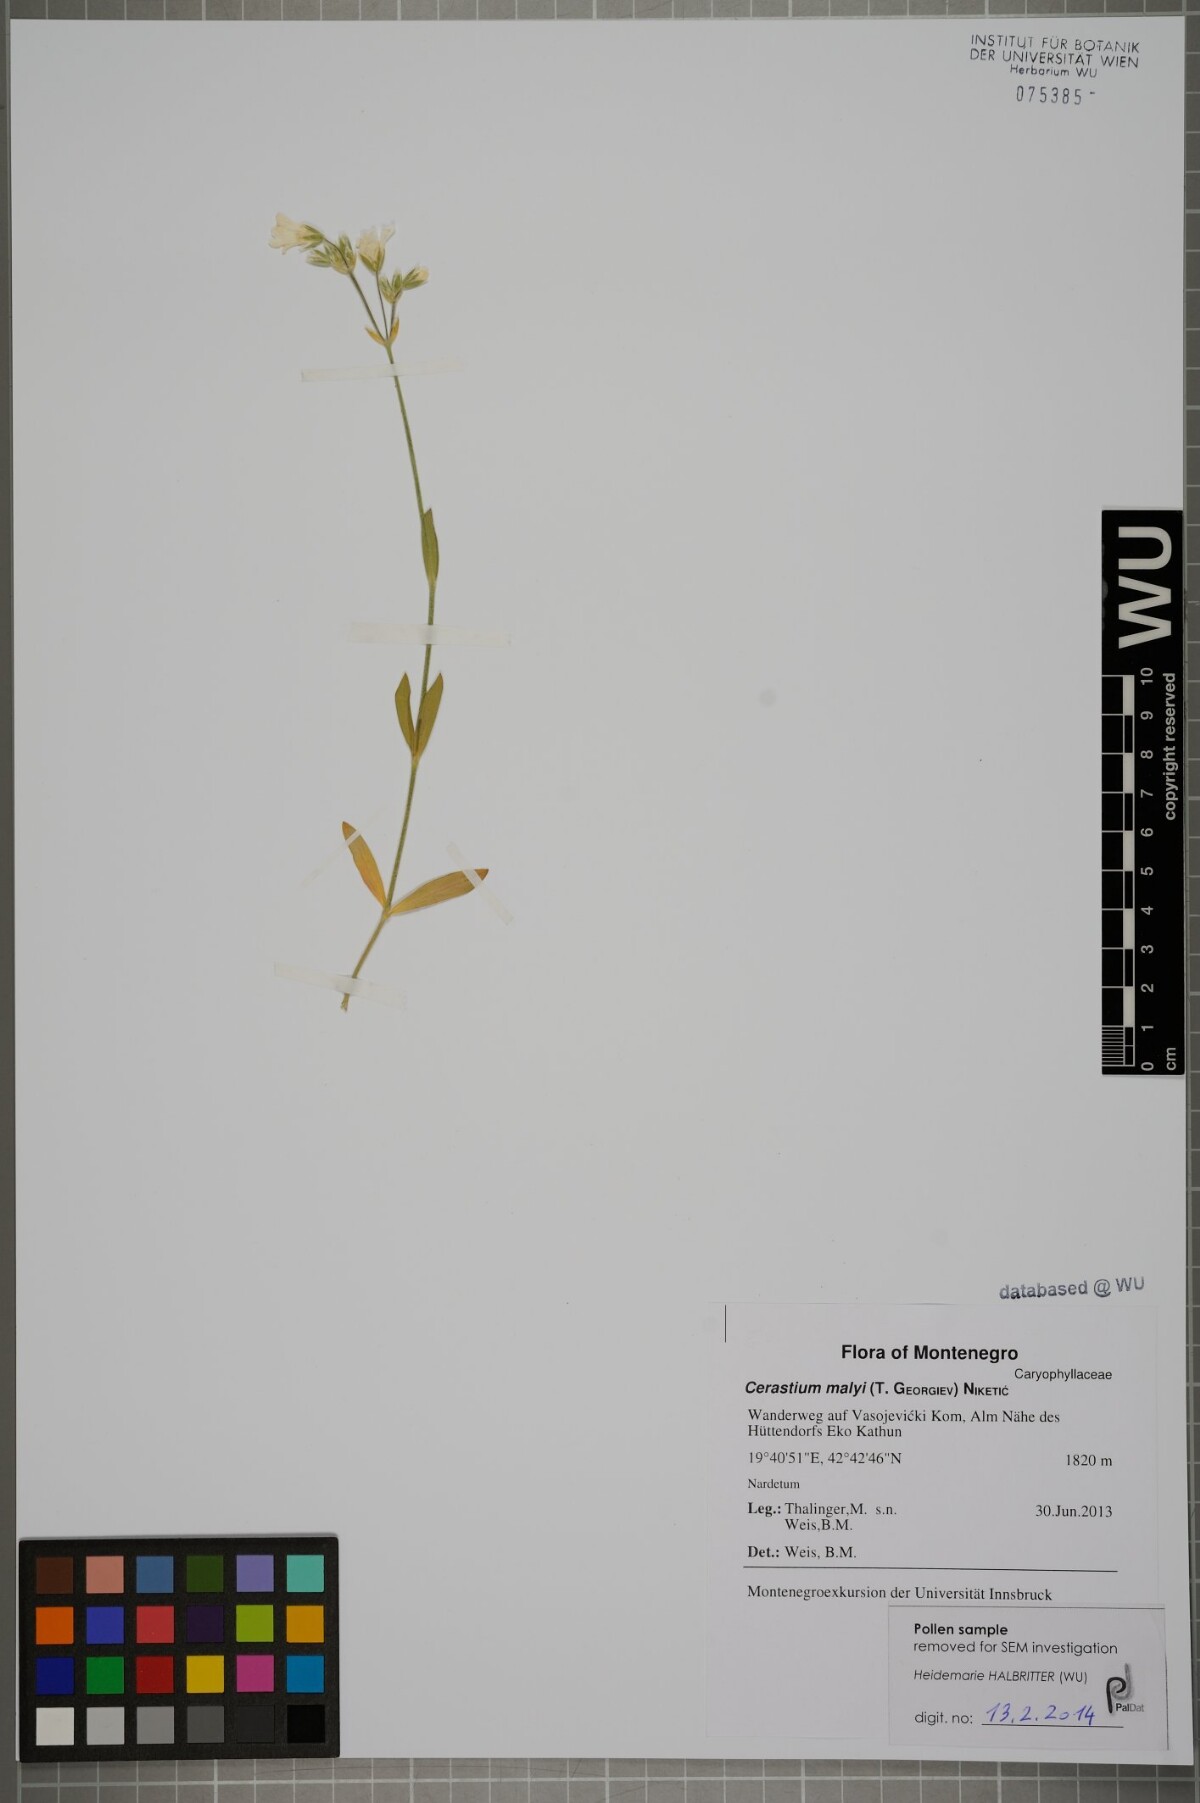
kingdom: Plantae
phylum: Tracheophyta
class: Magnoliopsida
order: Caryophyllales
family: Caryophyllaceae
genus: Cerastium
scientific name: Cerastium malyi
